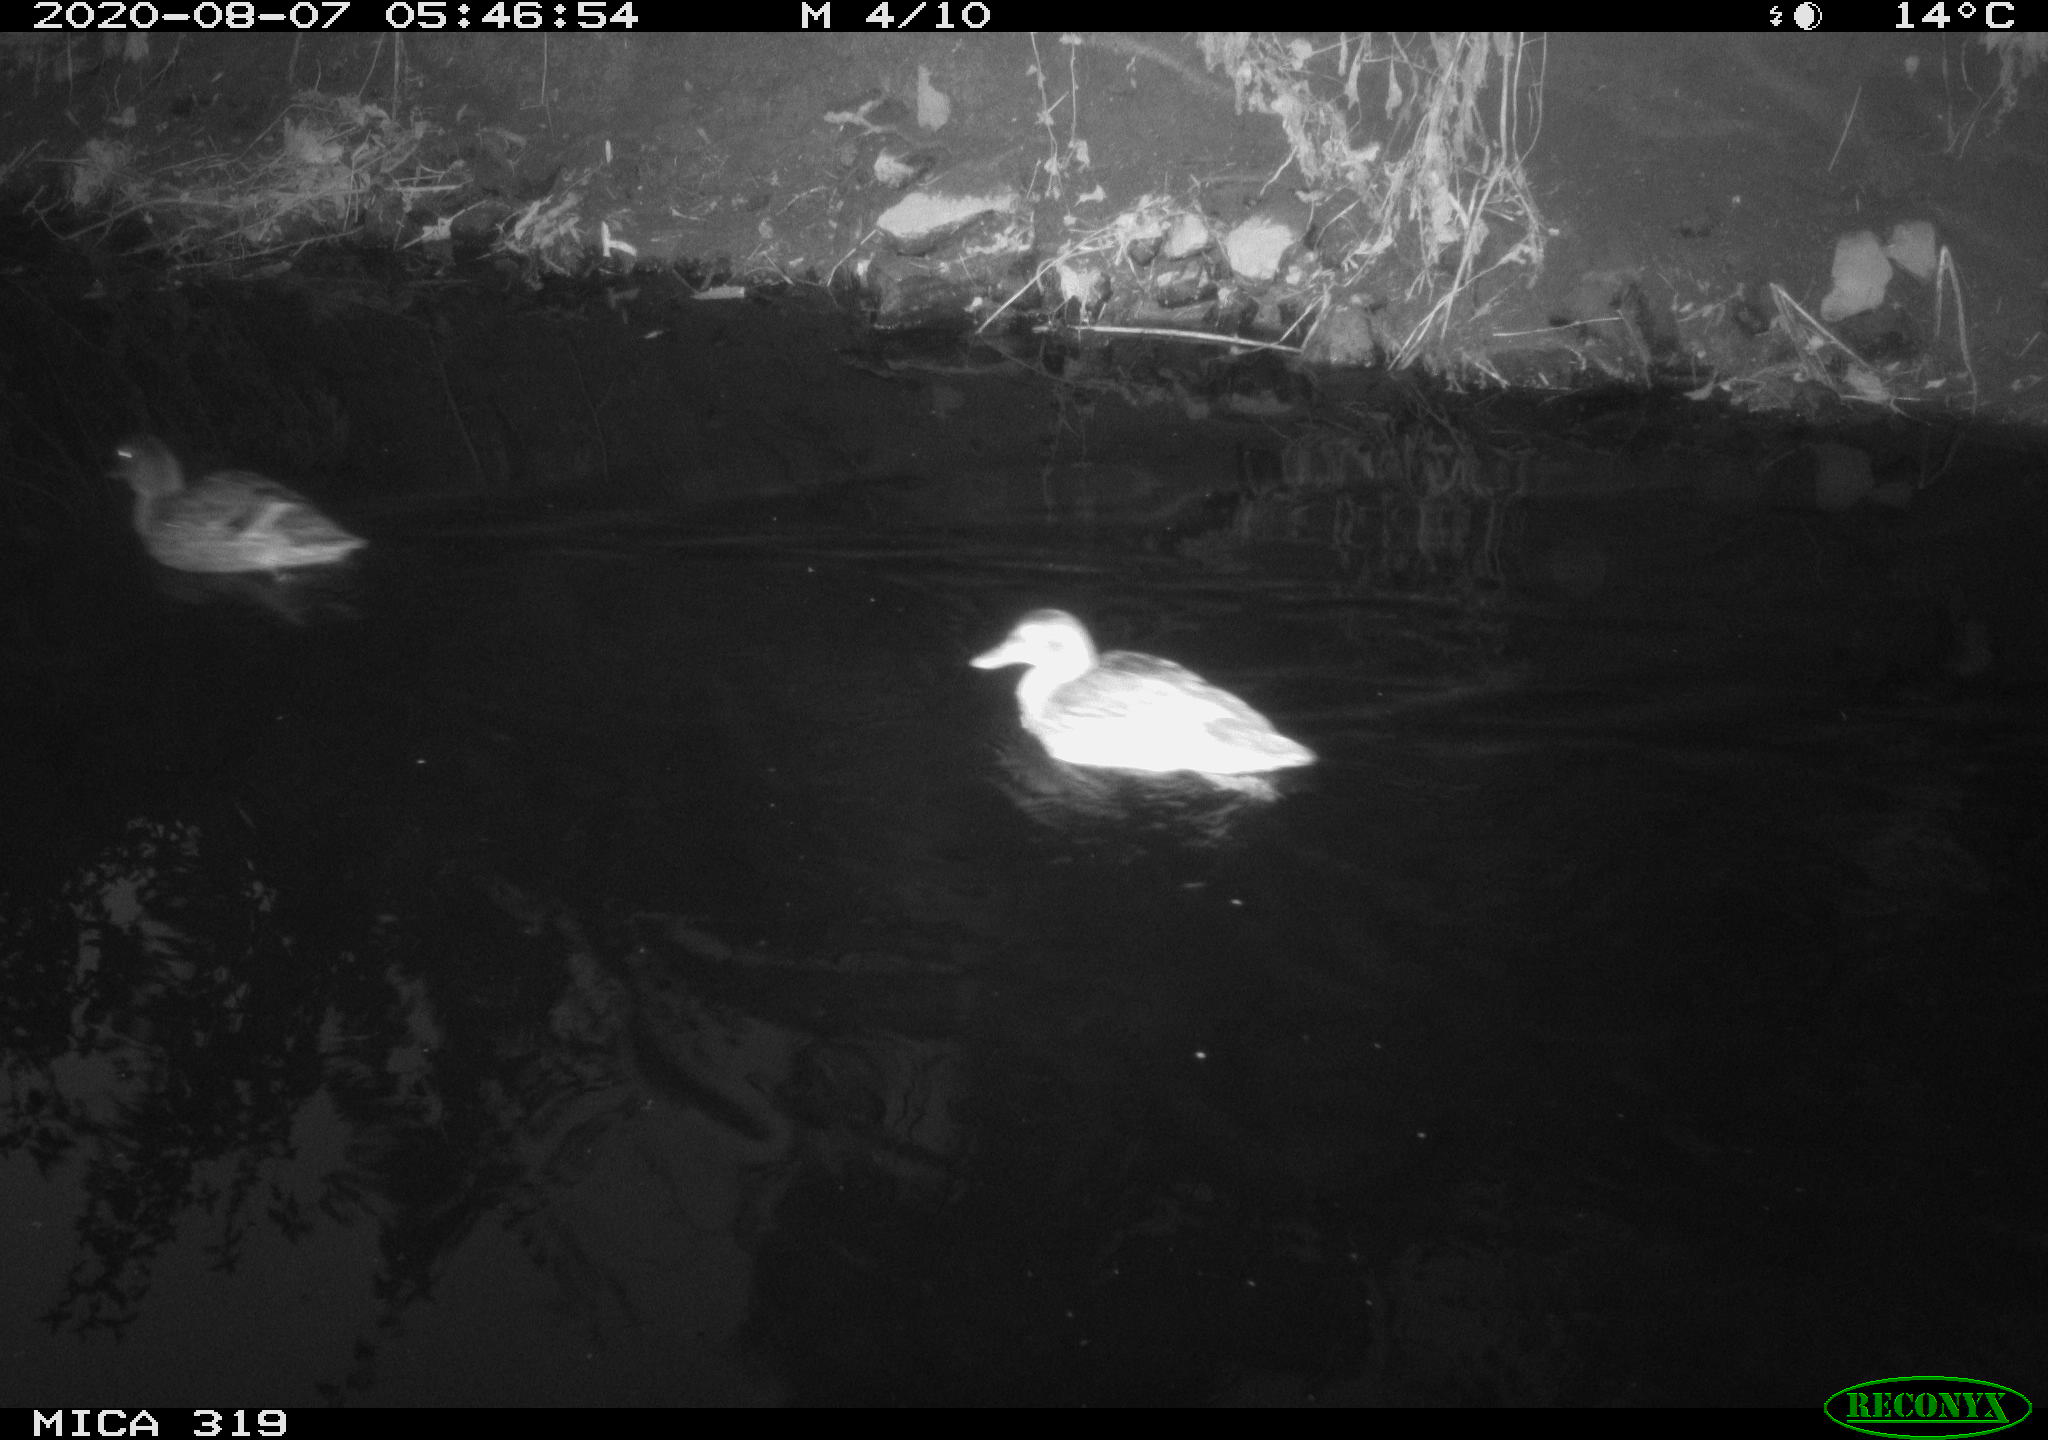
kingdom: Animalia
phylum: Chordata
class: Aves
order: Anseriformes
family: Anatidae
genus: Anas
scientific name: Anas platyrhynchos
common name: Mallard
